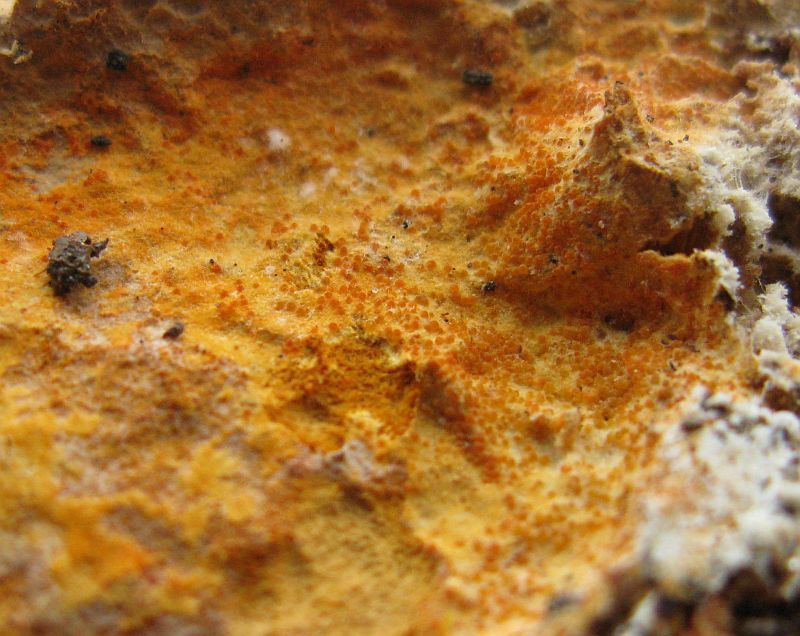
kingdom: Fungi
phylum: Ascomycota
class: Sordariomycetes
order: Hypocreales
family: Hypocreaceae
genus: Hypomyces
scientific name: Hypomyces aurantius
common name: almindelig snylteskorpe
